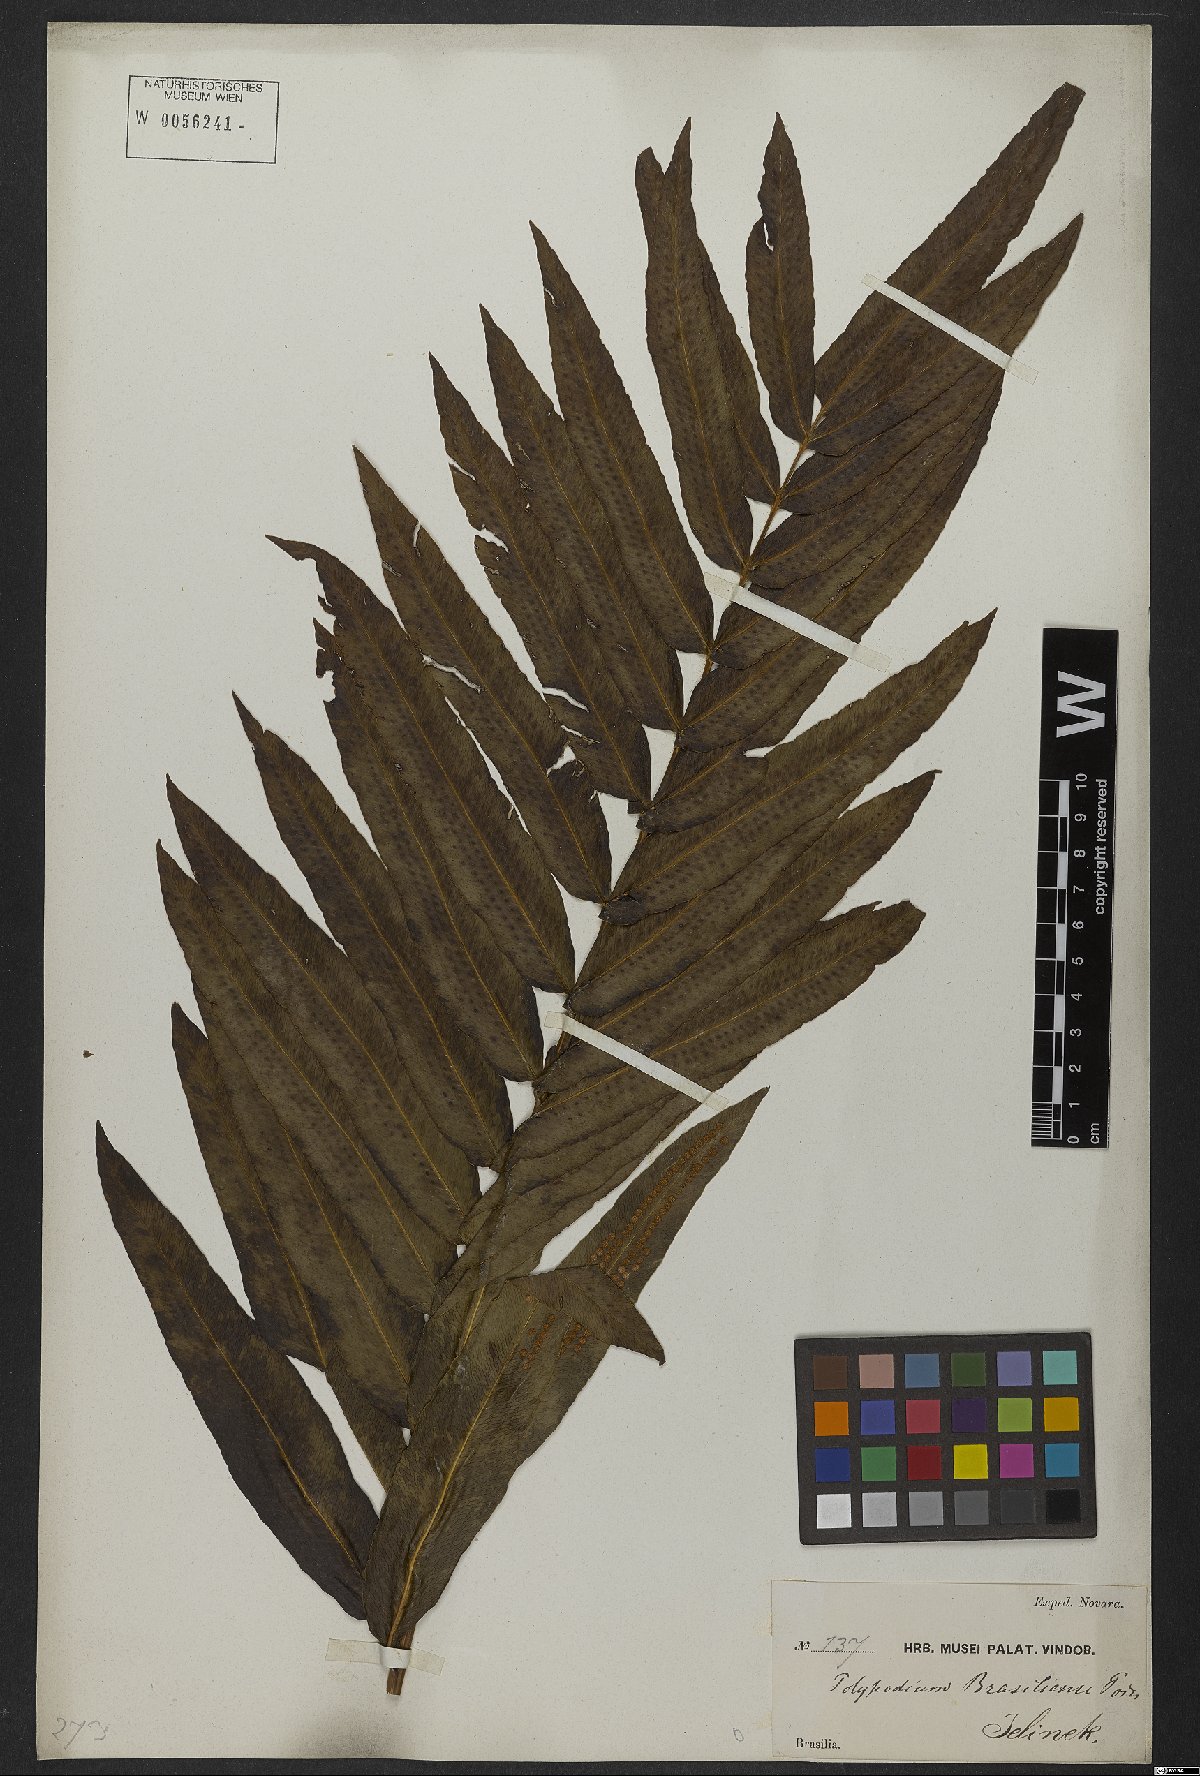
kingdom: Plantae
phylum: Tracheophyta
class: Polypodiopsida
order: Polypodiales
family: Polypodiaceae
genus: Serpocaulon
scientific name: Serpocaulon triseriale
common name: Angle-vein fern
